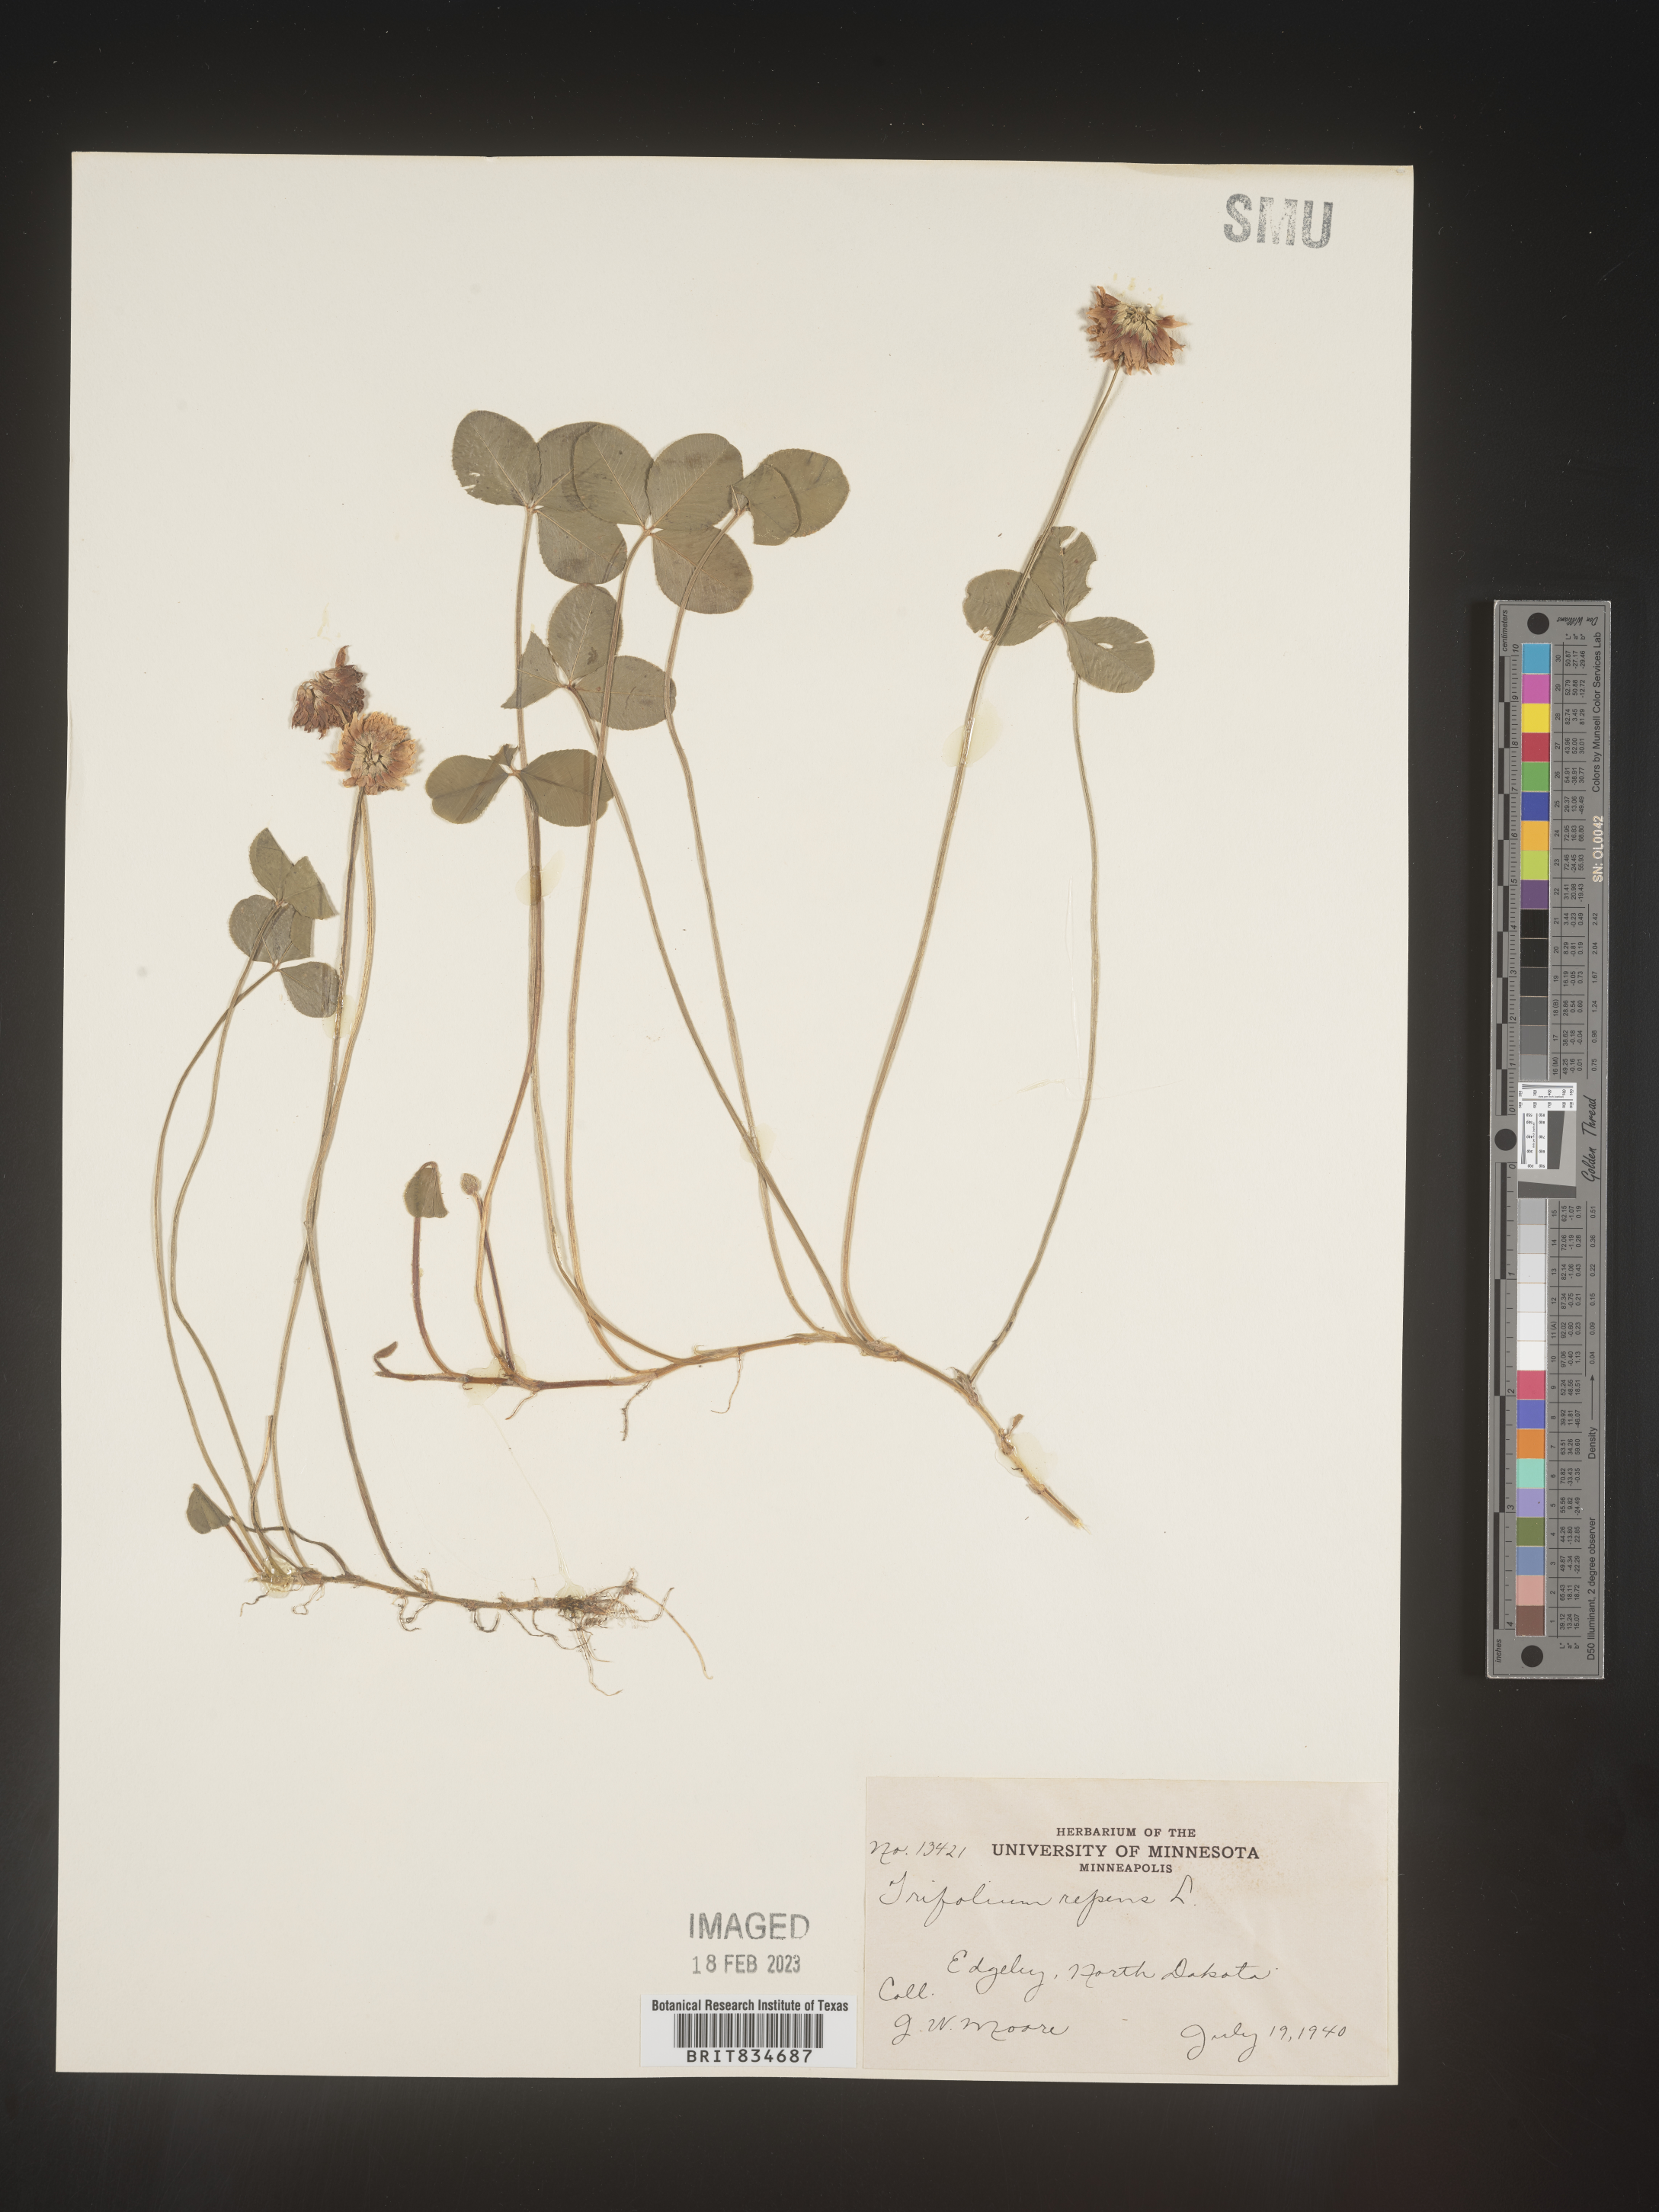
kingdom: Plantae
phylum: Tracheophyta
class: Magnoliopsida
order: Fabales
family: Fabaceae
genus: Trifolium
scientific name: Trifolium repens
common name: White clover
